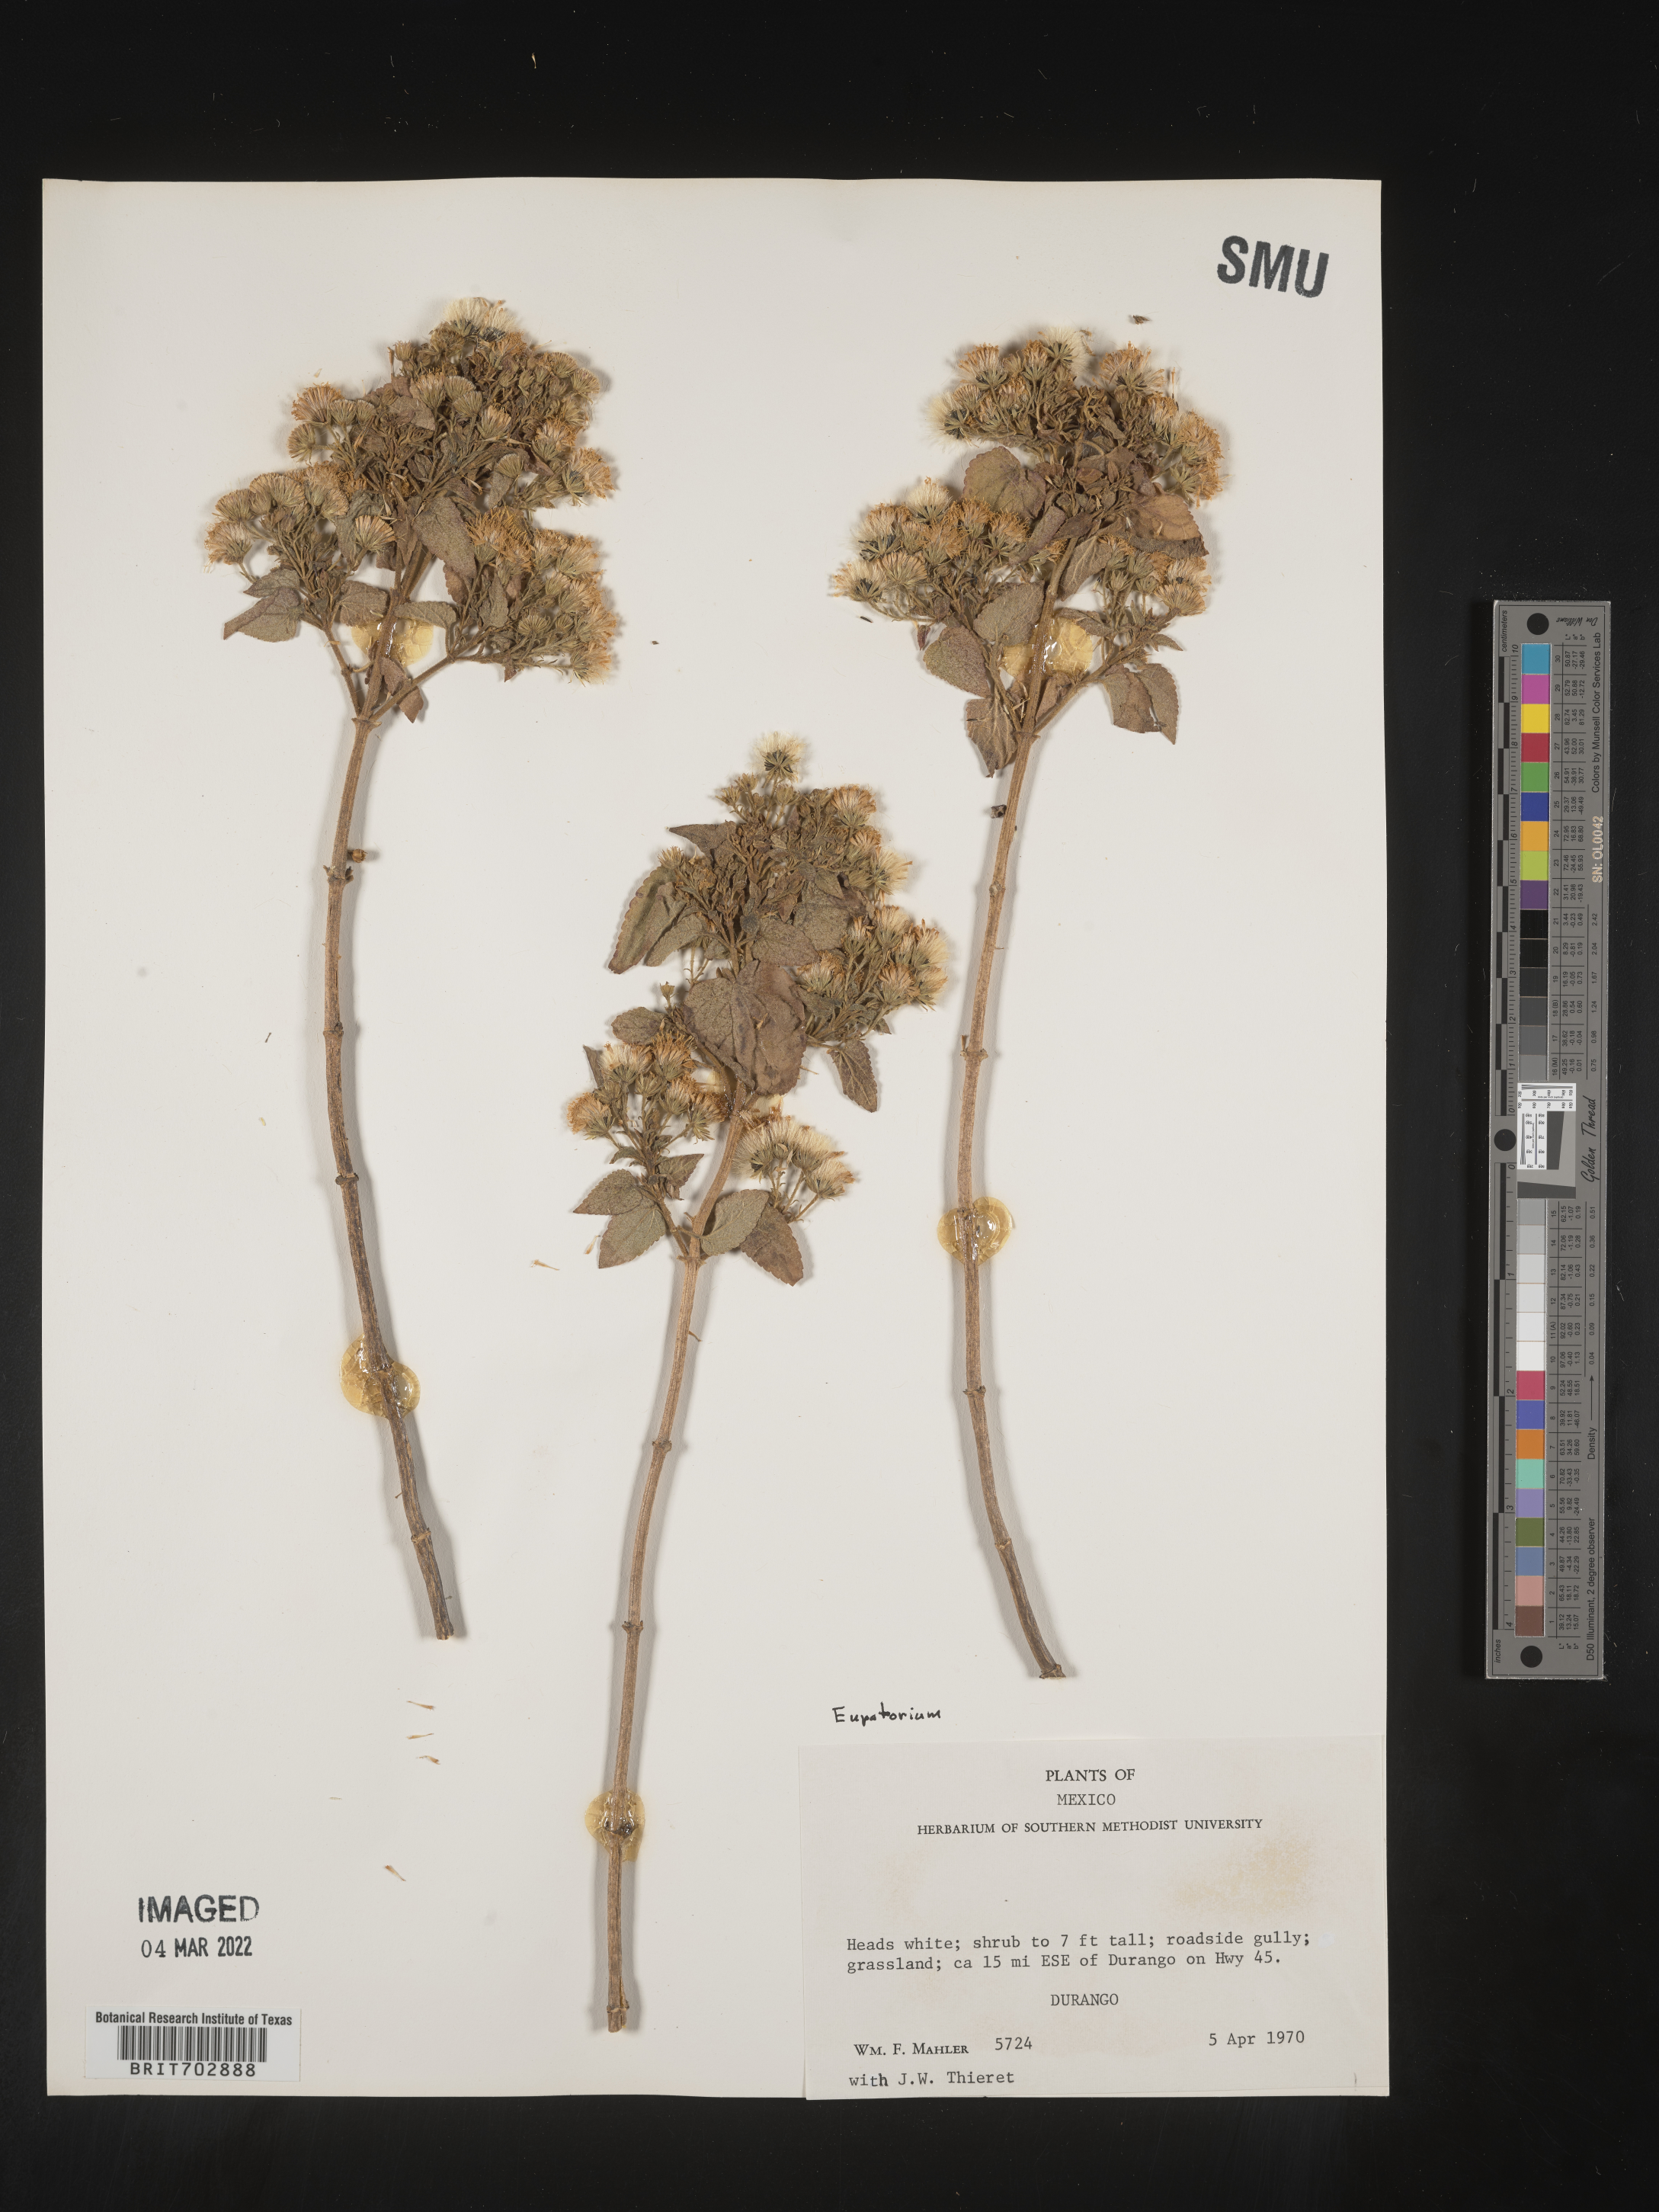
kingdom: Plantae
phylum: Tracheophyta
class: Magnoliopsida
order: Asterales
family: Asteraceae
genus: Eupatorium
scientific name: Eupatorium
